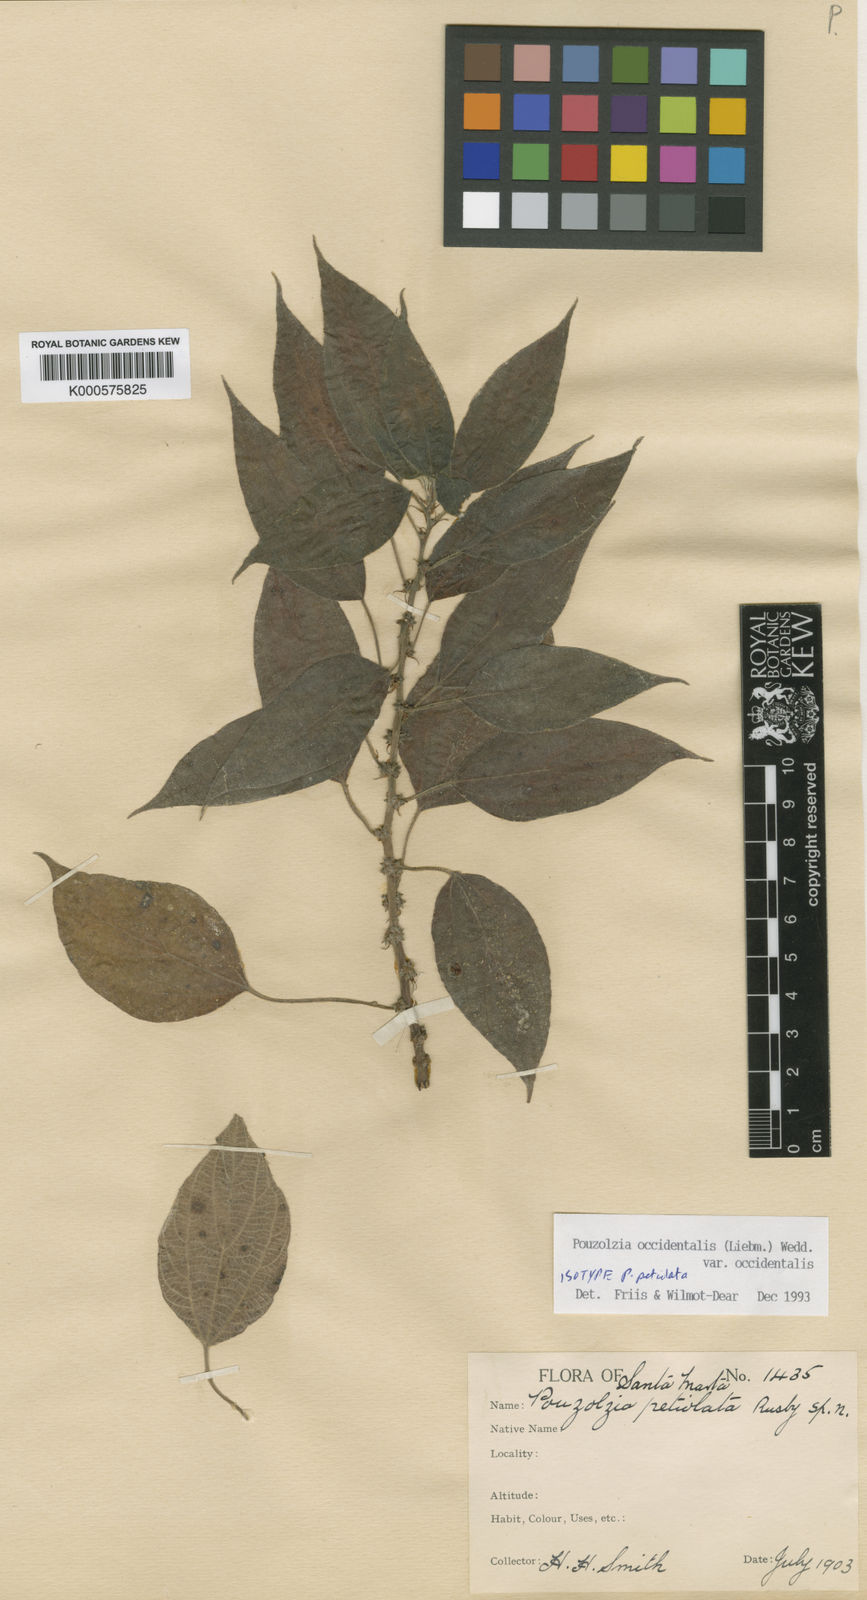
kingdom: Plantae
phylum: Tracheophyta
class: Magnoliopsida
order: Rosales
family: Urticaceae
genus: Pouzolzia
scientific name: Pouzolzia occidentalis
